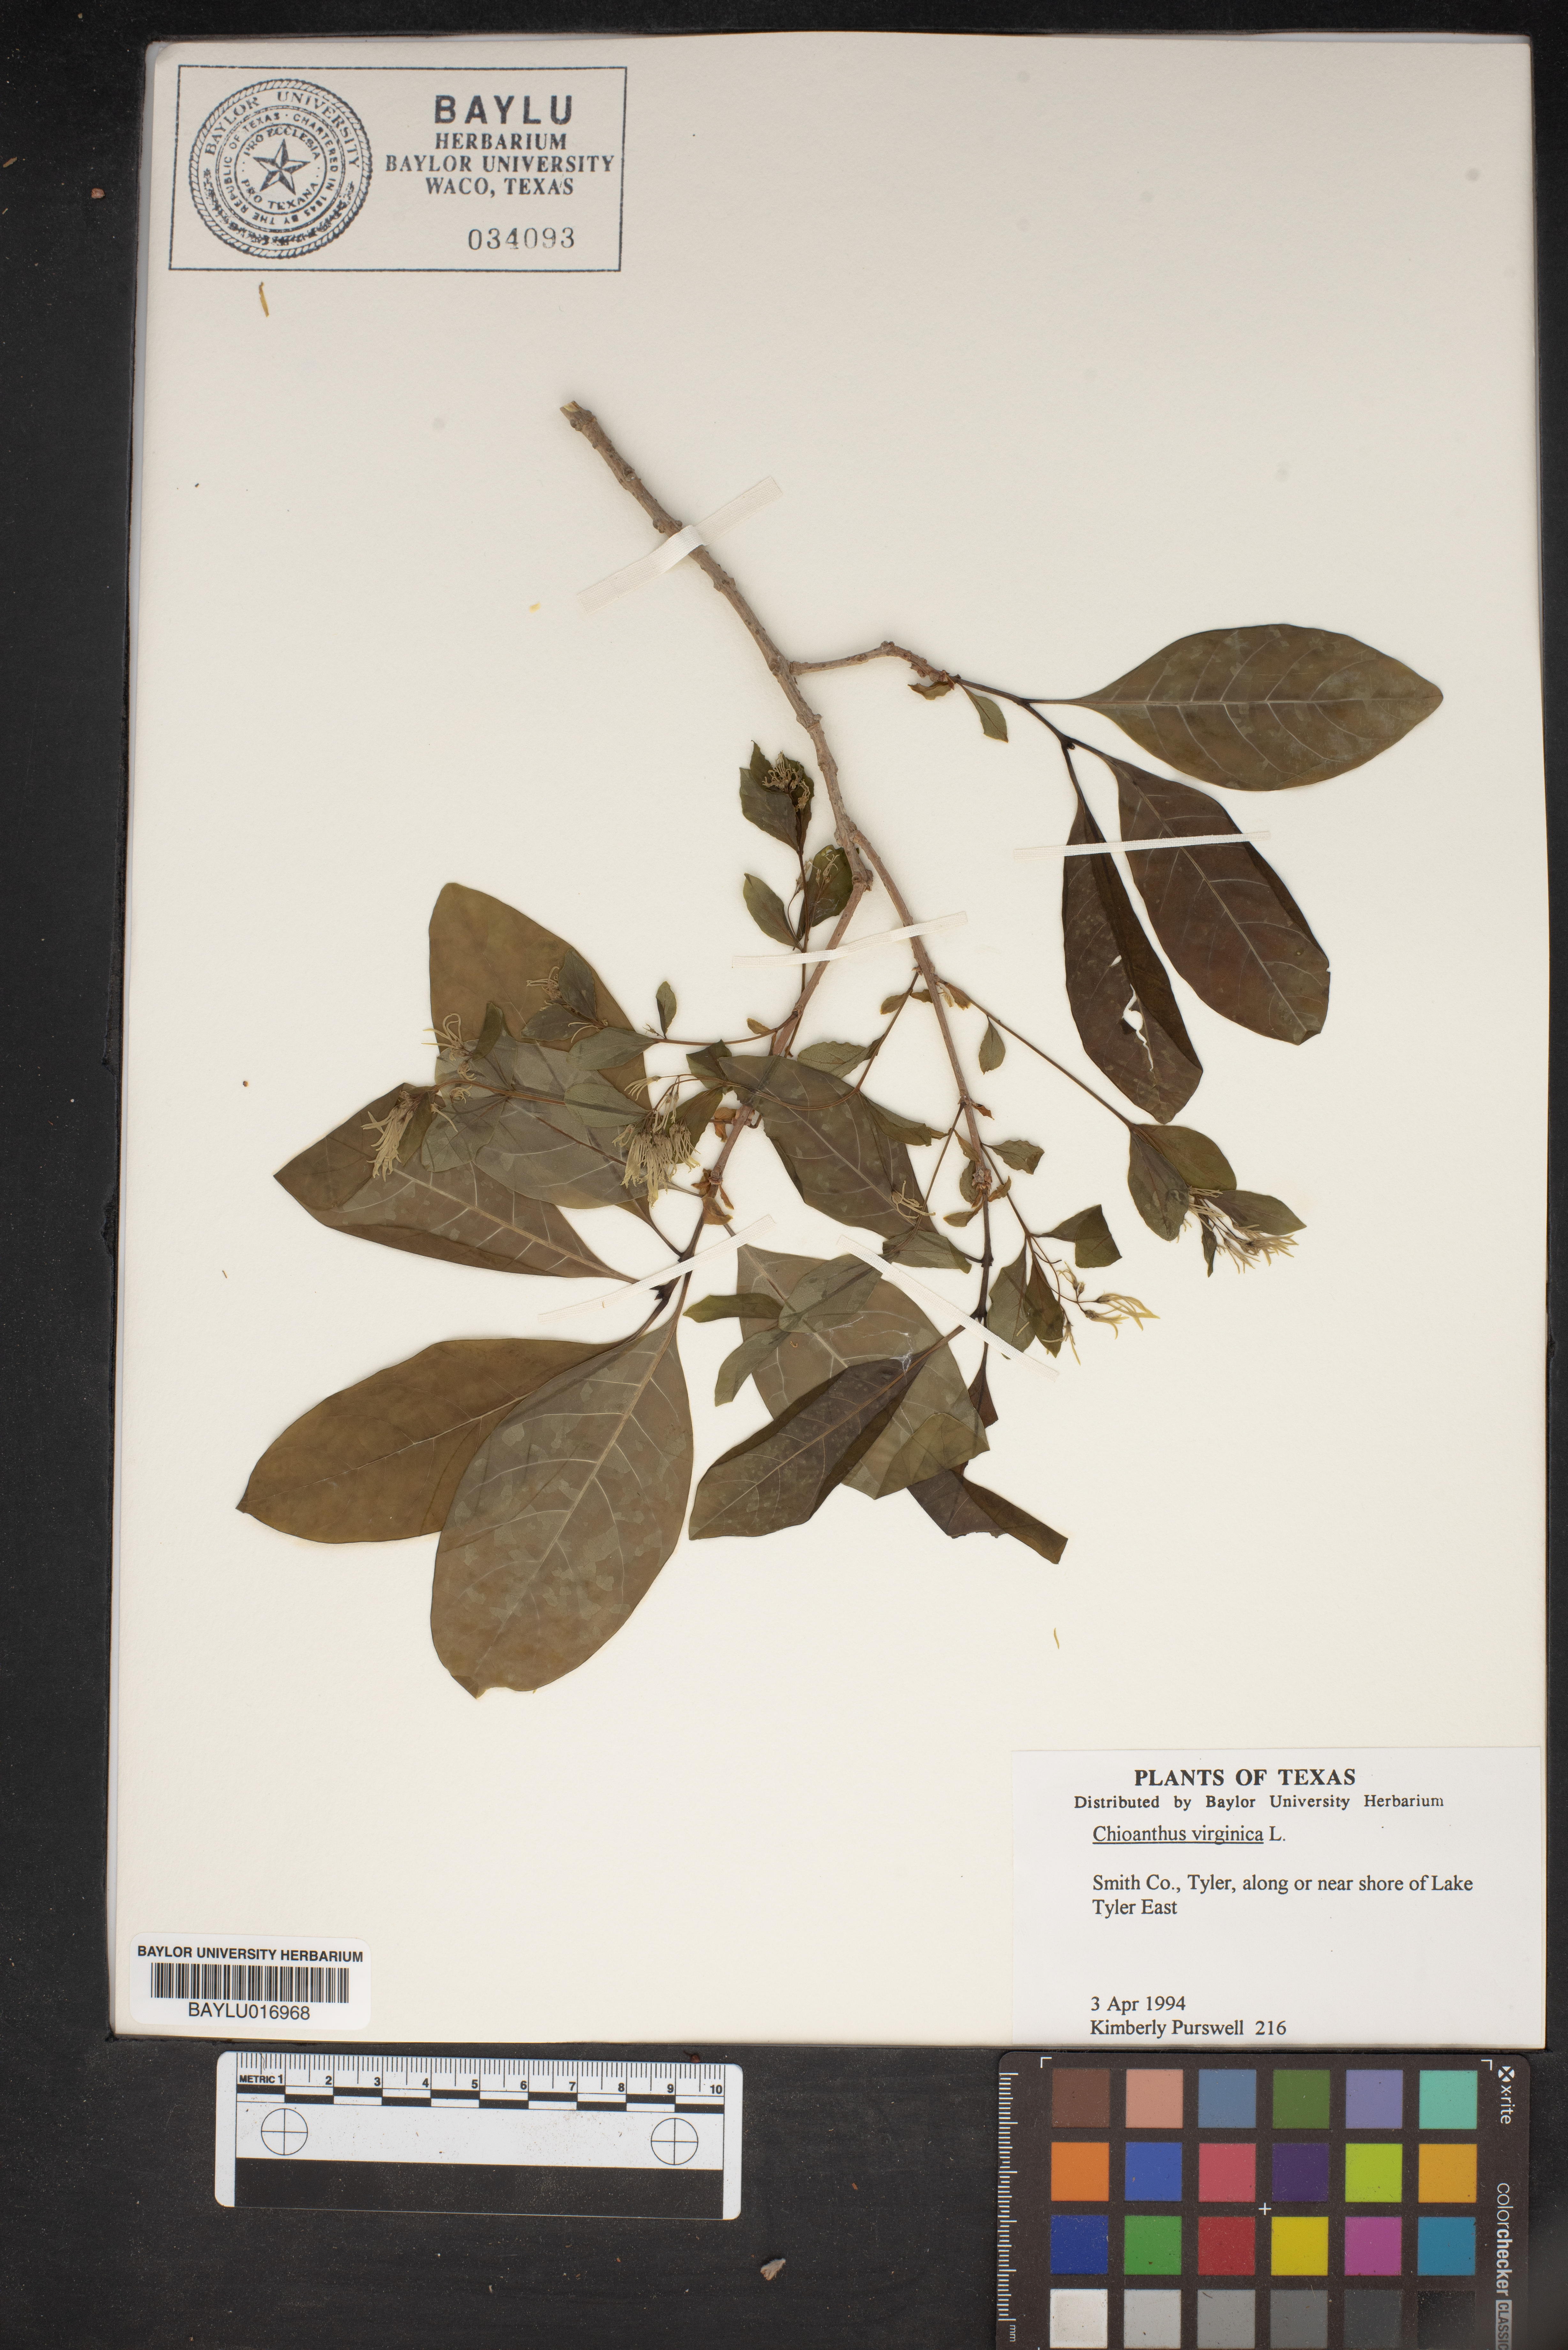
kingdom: Plantae
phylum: Tracheophyta
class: Magnoliopsida
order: Lamiales
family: Oleaceae
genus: Chionanthus
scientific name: Chionanthus virginicus
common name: American fringetree
